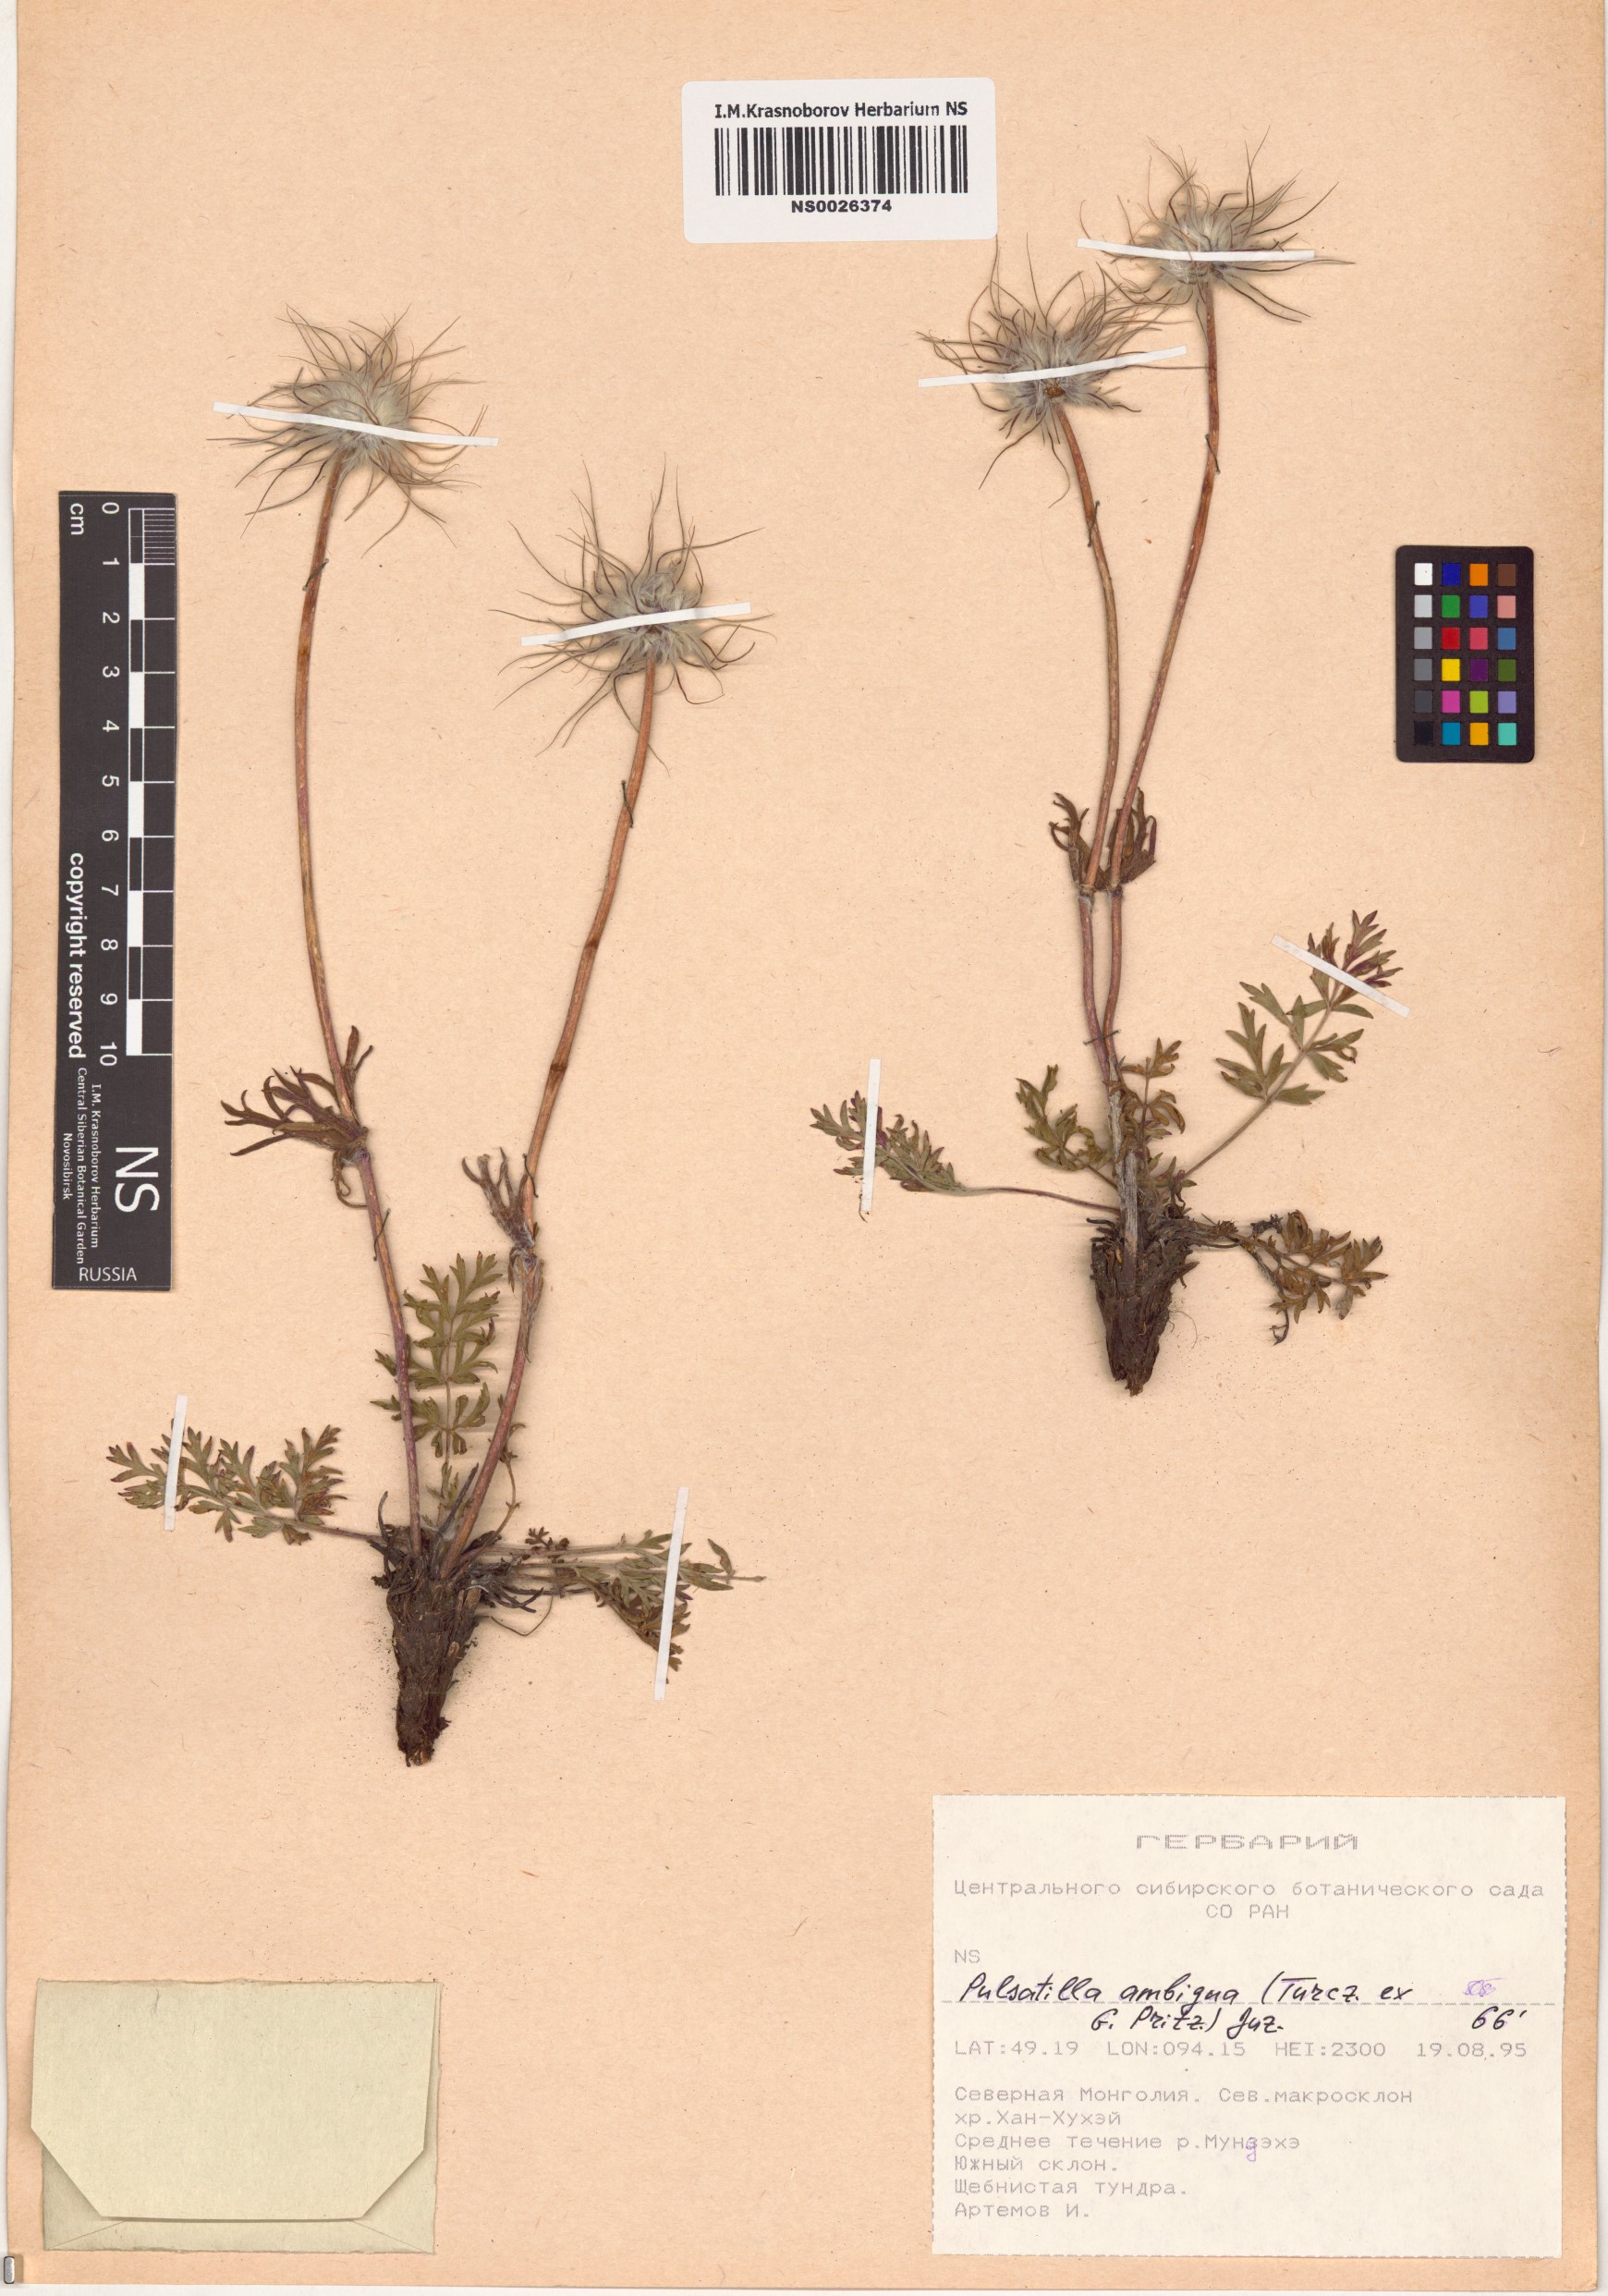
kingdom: Plantae
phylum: Tracheophyta
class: Magnoliopsida
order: Ranunculales
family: Ranunculaceae
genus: Pulsatilla
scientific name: Pulsatilla ambigua
